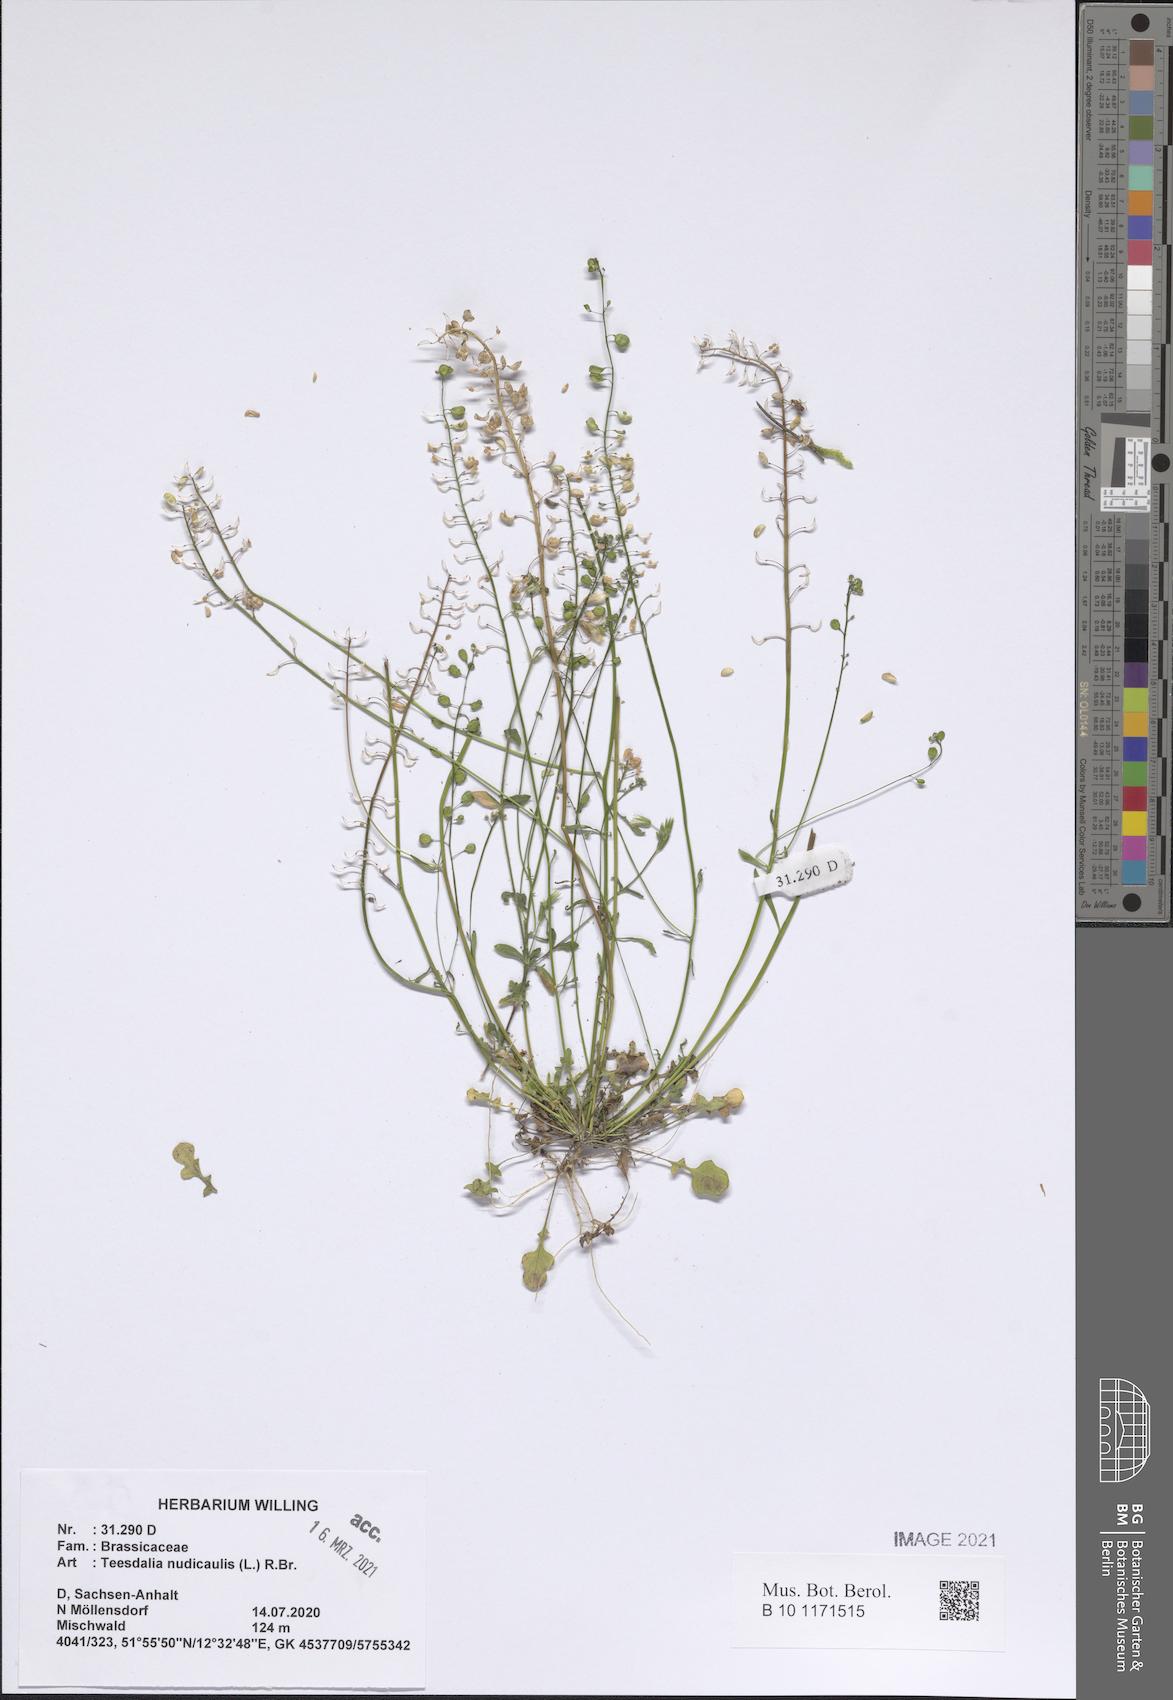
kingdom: Plantae
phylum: Tracheophyta
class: Magnoliopsida
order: Brassicales
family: Brassicaceae
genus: Teesdalia
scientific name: Teesdalia nudicaulis
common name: Shepherd's cress
